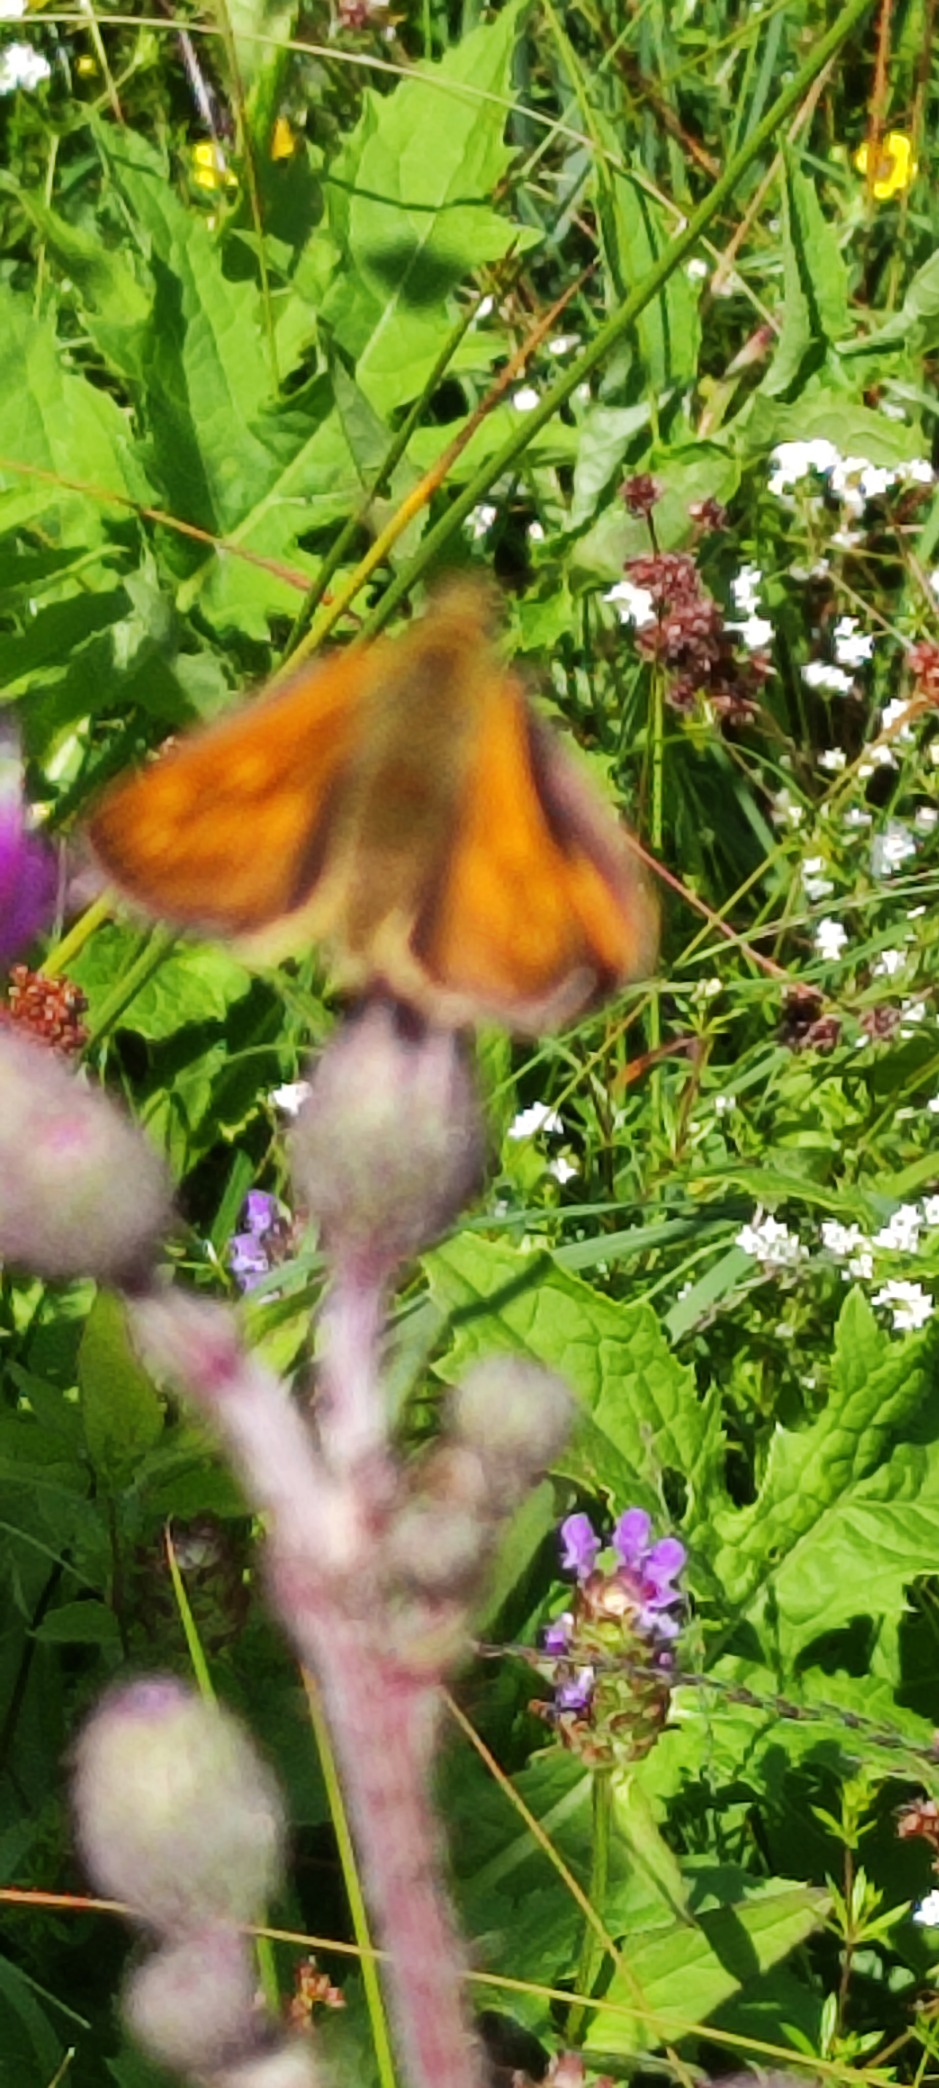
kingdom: Animalia
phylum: Arthropoda
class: Insecta
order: Lepidoptera
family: Hesperiidae
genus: Ochlodes
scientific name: Ochlodes venata
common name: Stor bredpande
